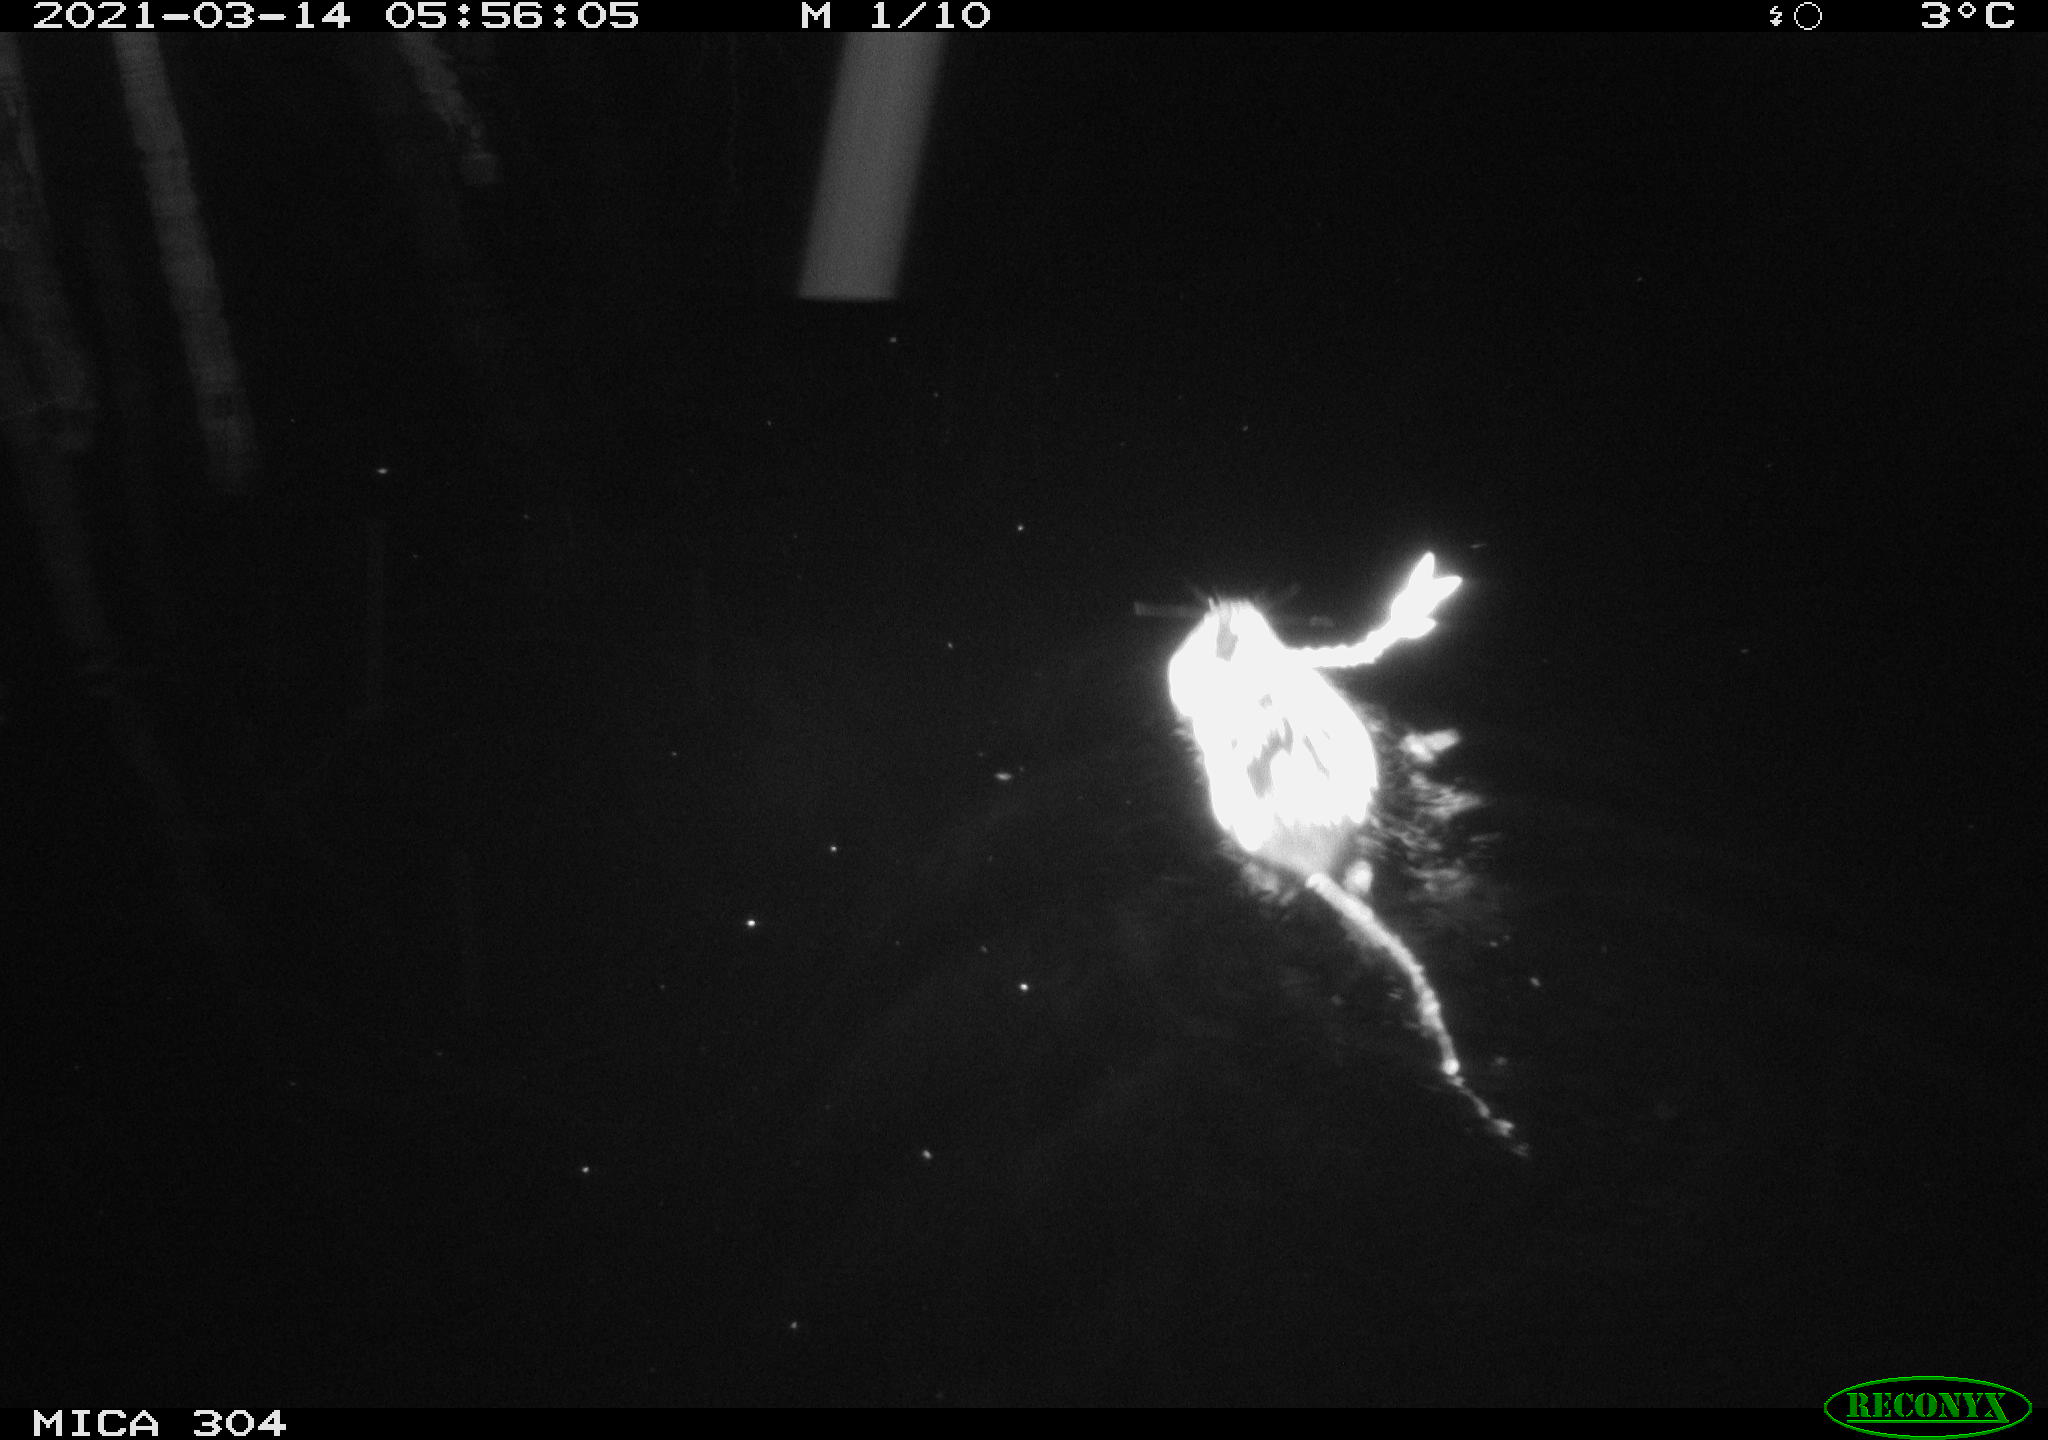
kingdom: Animalia
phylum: Chordata
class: Mammalia
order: Rodentia
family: Cricetidae
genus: Ondatra
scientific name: Ondatra zibethicus
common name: Muskrat
